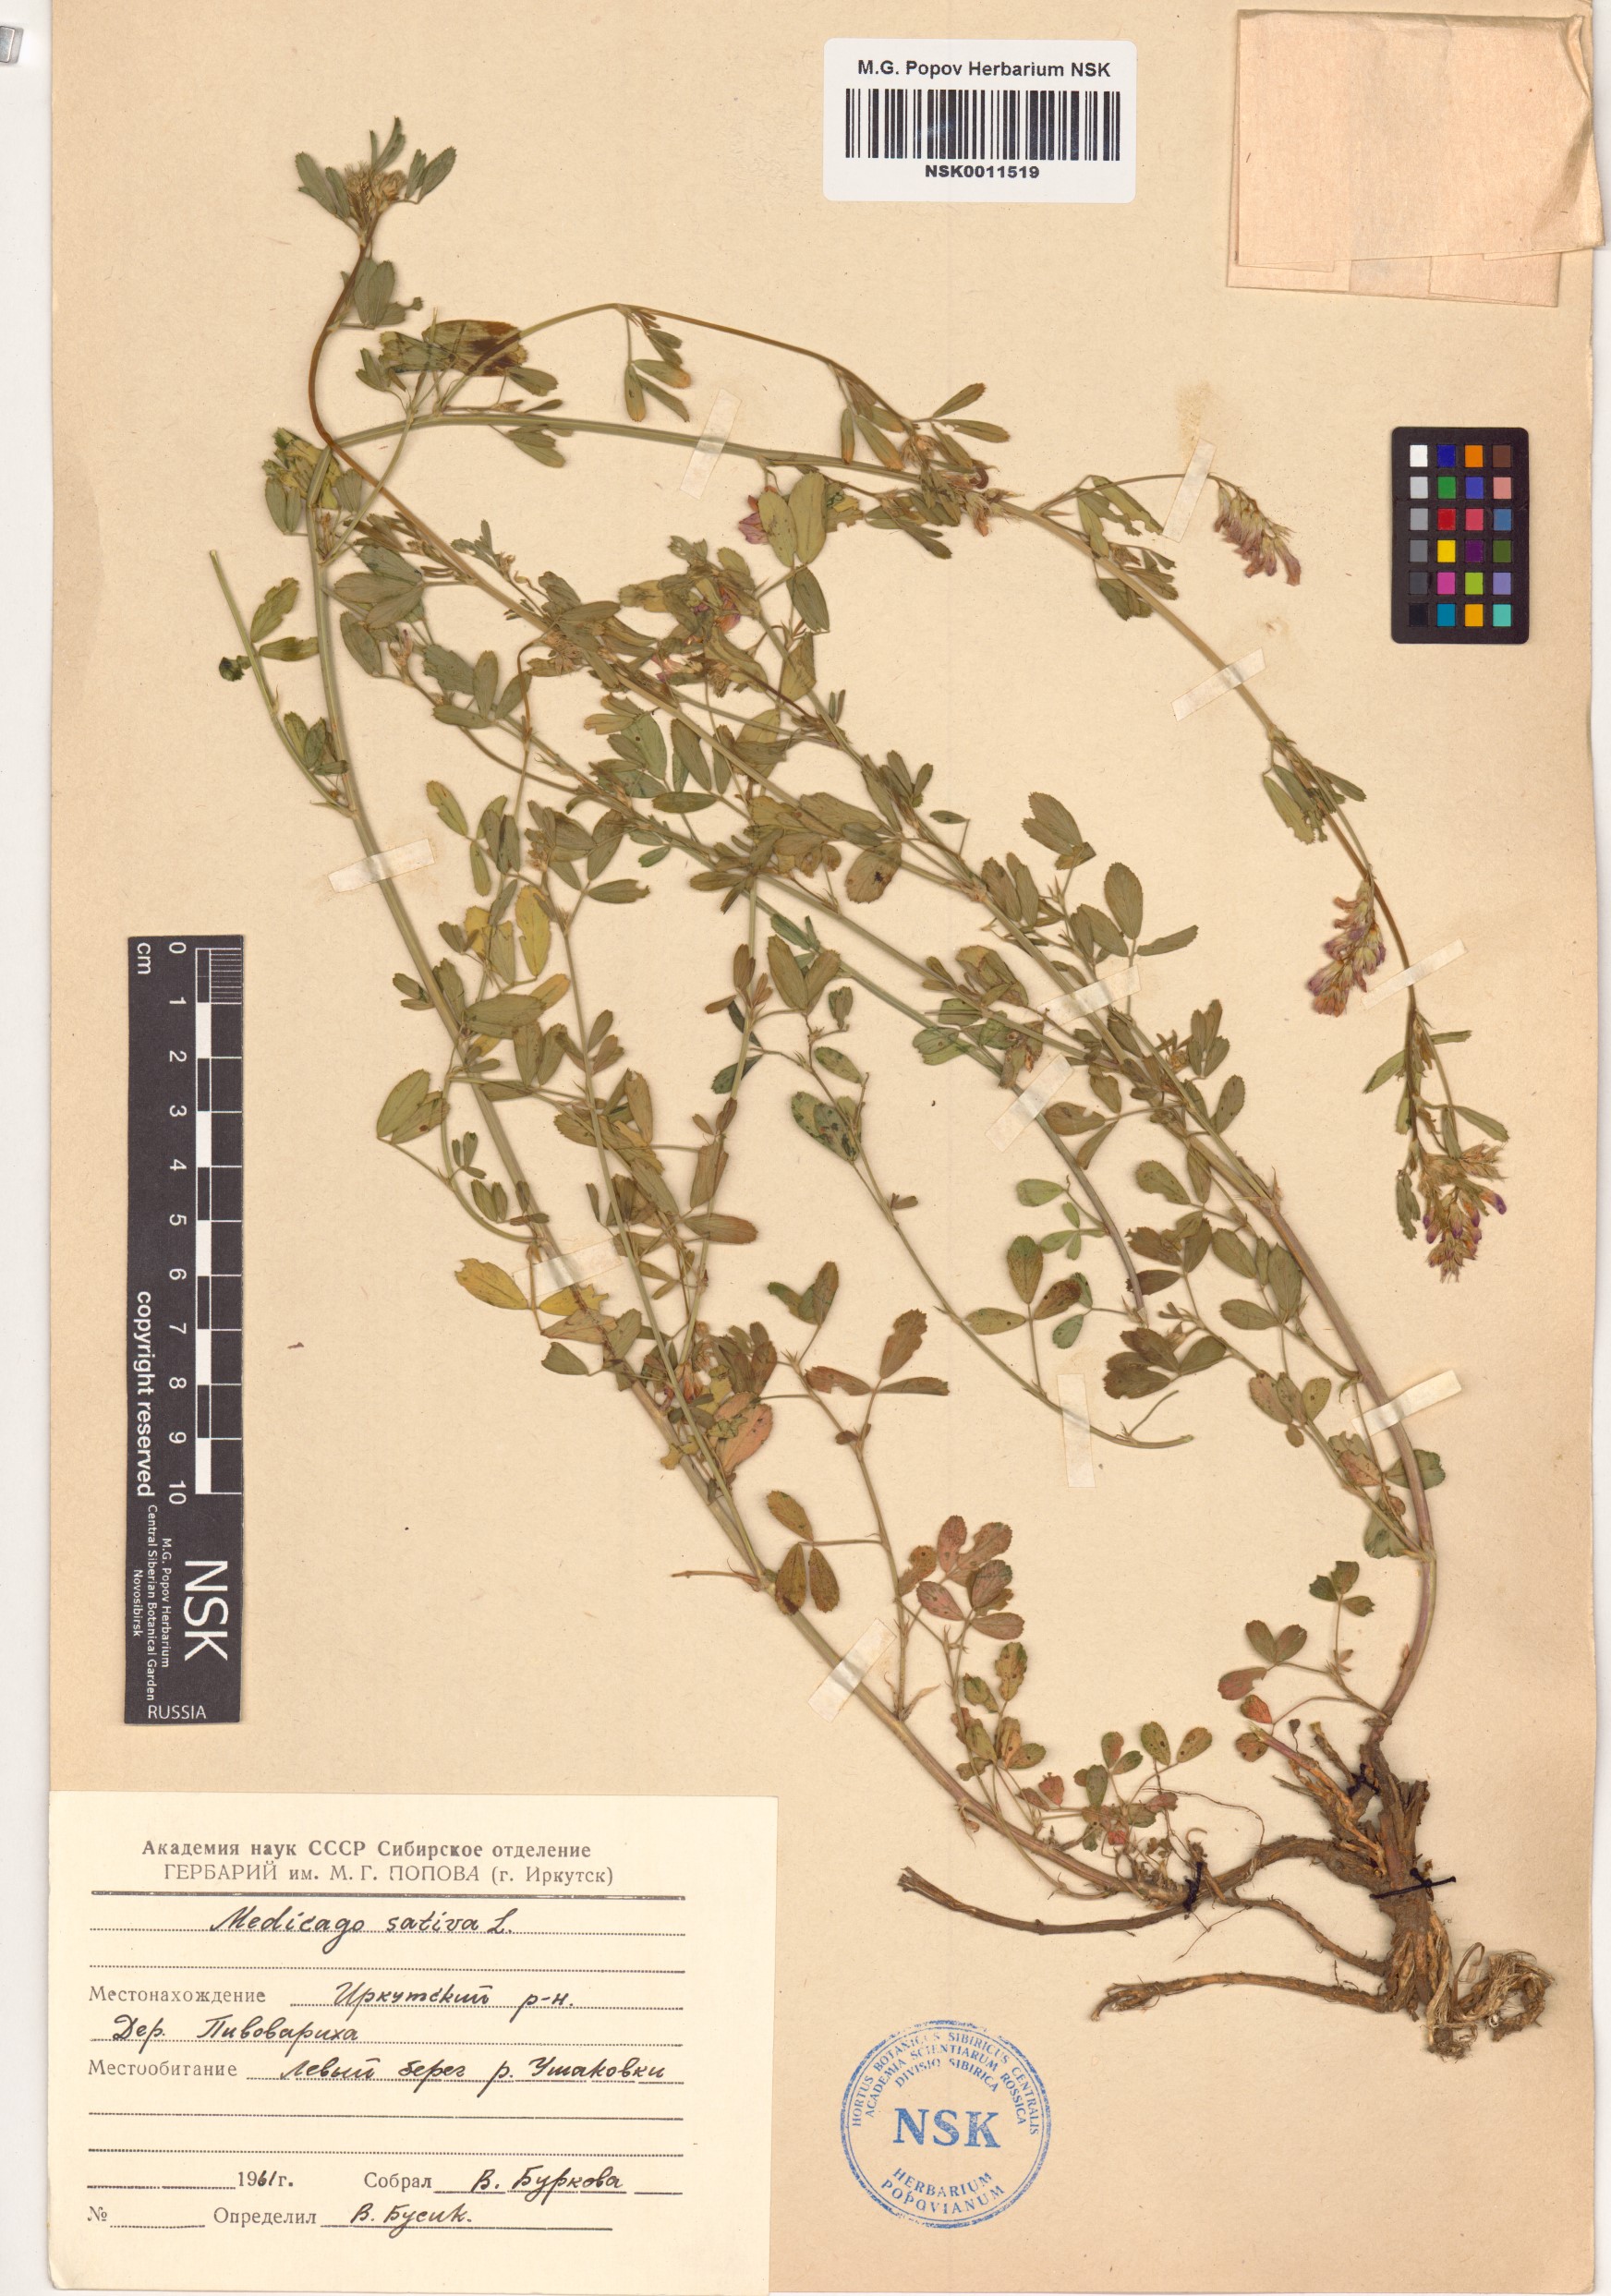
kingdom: Plantae
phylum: Tracheophyta
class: Magnoliopsida
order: Fabales
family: Fabaceae
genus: Medicago
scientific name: Medicago sativa
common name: Alfalfa
